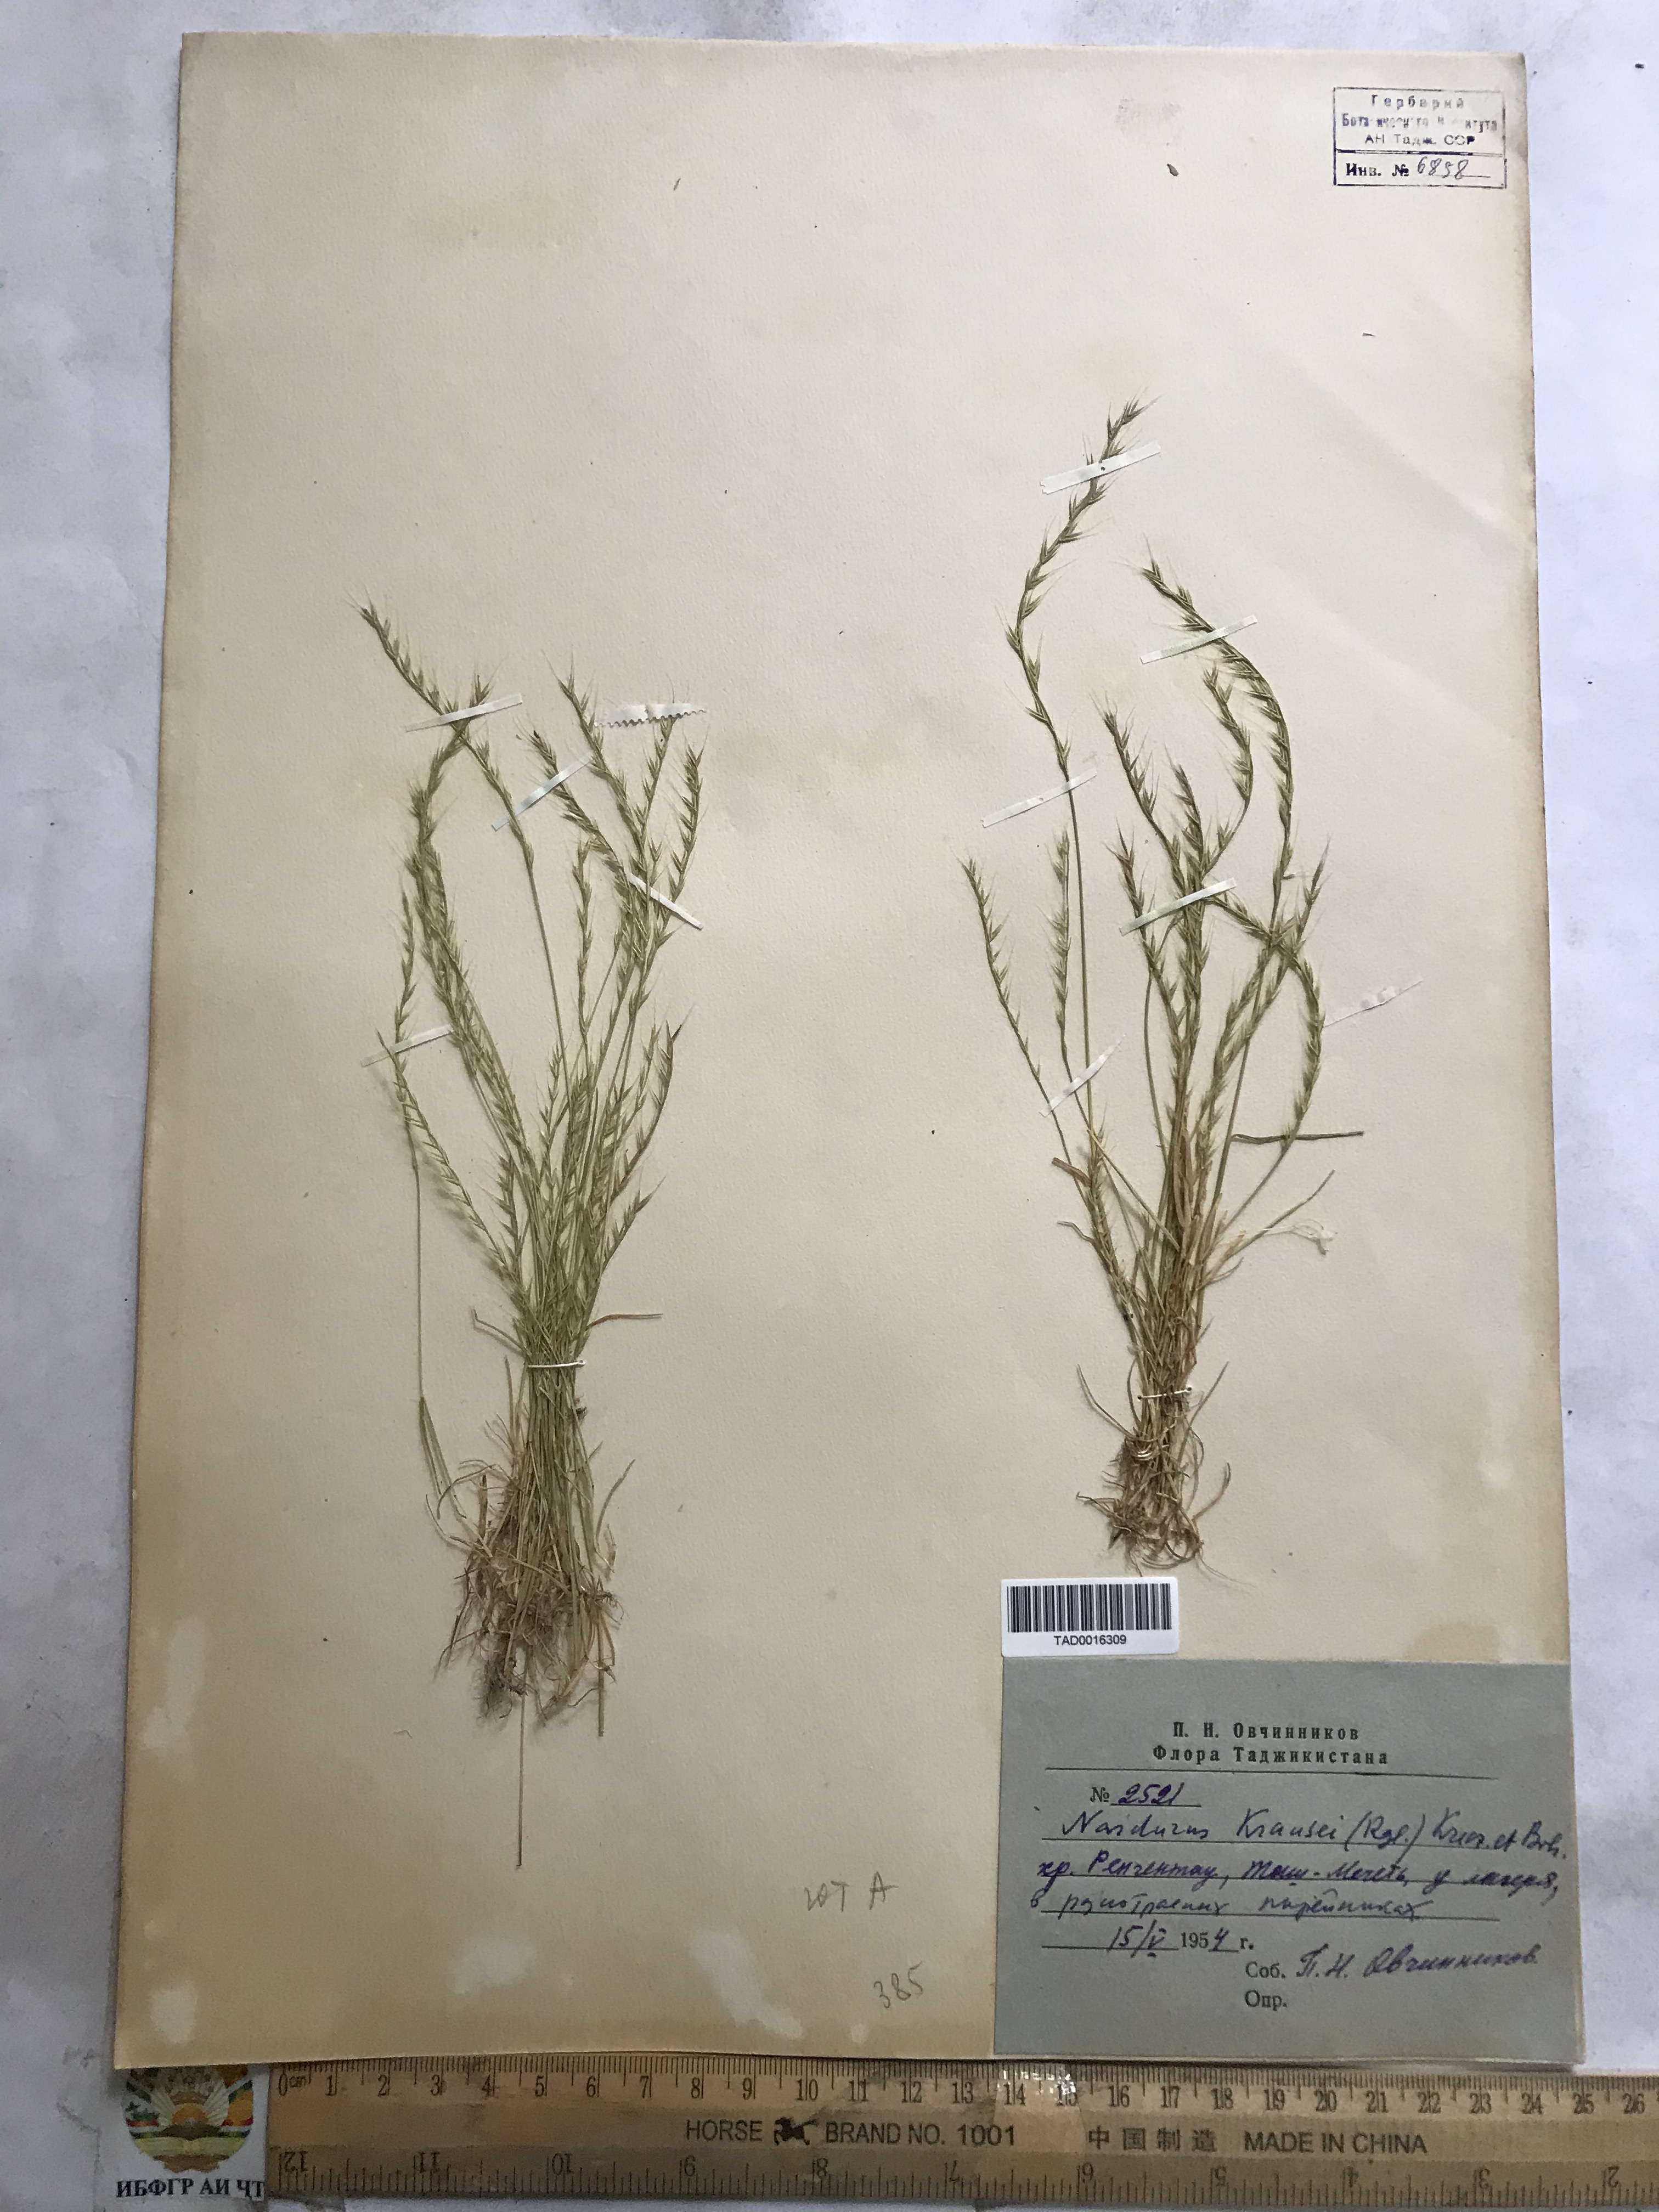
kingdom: Plantae
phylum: Tracheophyta
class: Liliopsida
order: Poales
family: Poaceae
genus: Festuca
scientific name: Festuca maritima
